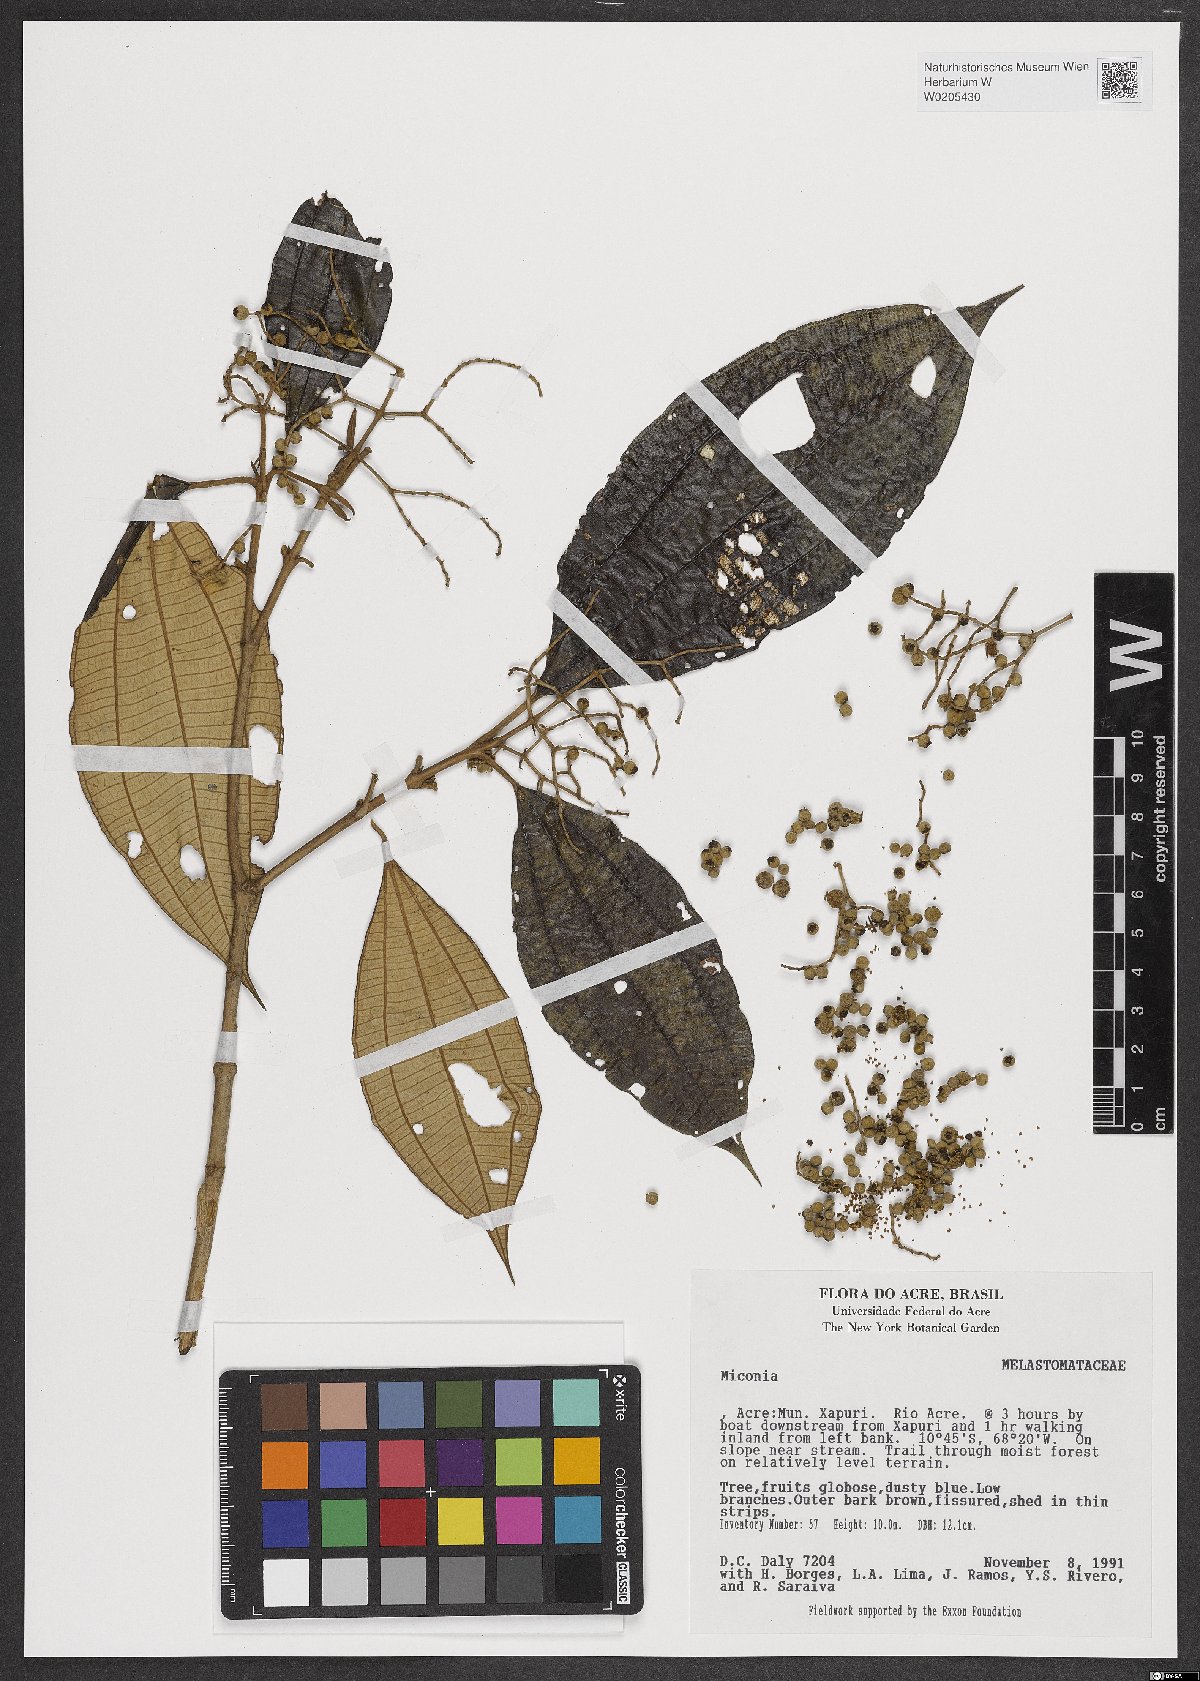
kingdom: Plantae
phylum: Tracheophyta
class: Magnoliopsida
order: Myrtales
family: Melastomataceae
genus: Miconia
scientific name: Miconia
